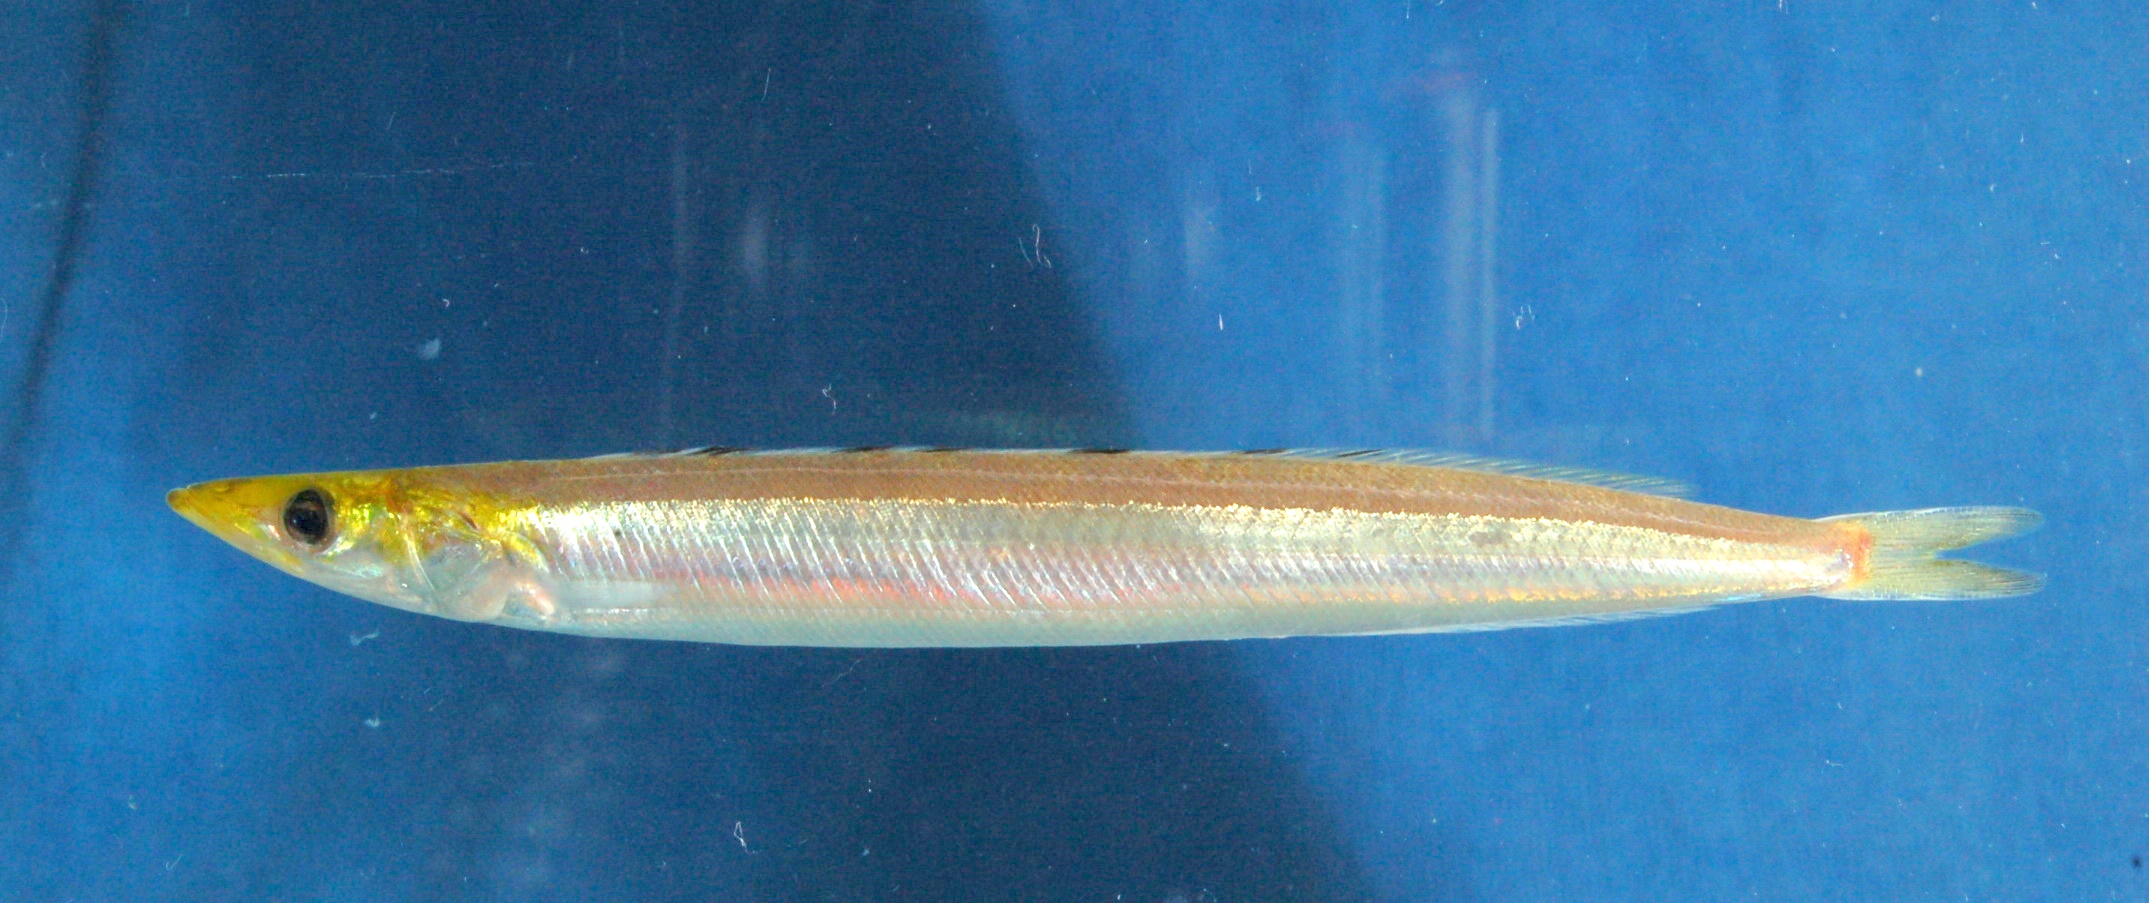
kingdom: Animalia
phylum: Chordata
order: Perciformes
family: Ammodytidae
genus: Ammodytoides
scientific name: Ammodytoides xanthops
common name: Yellow face sandlance
